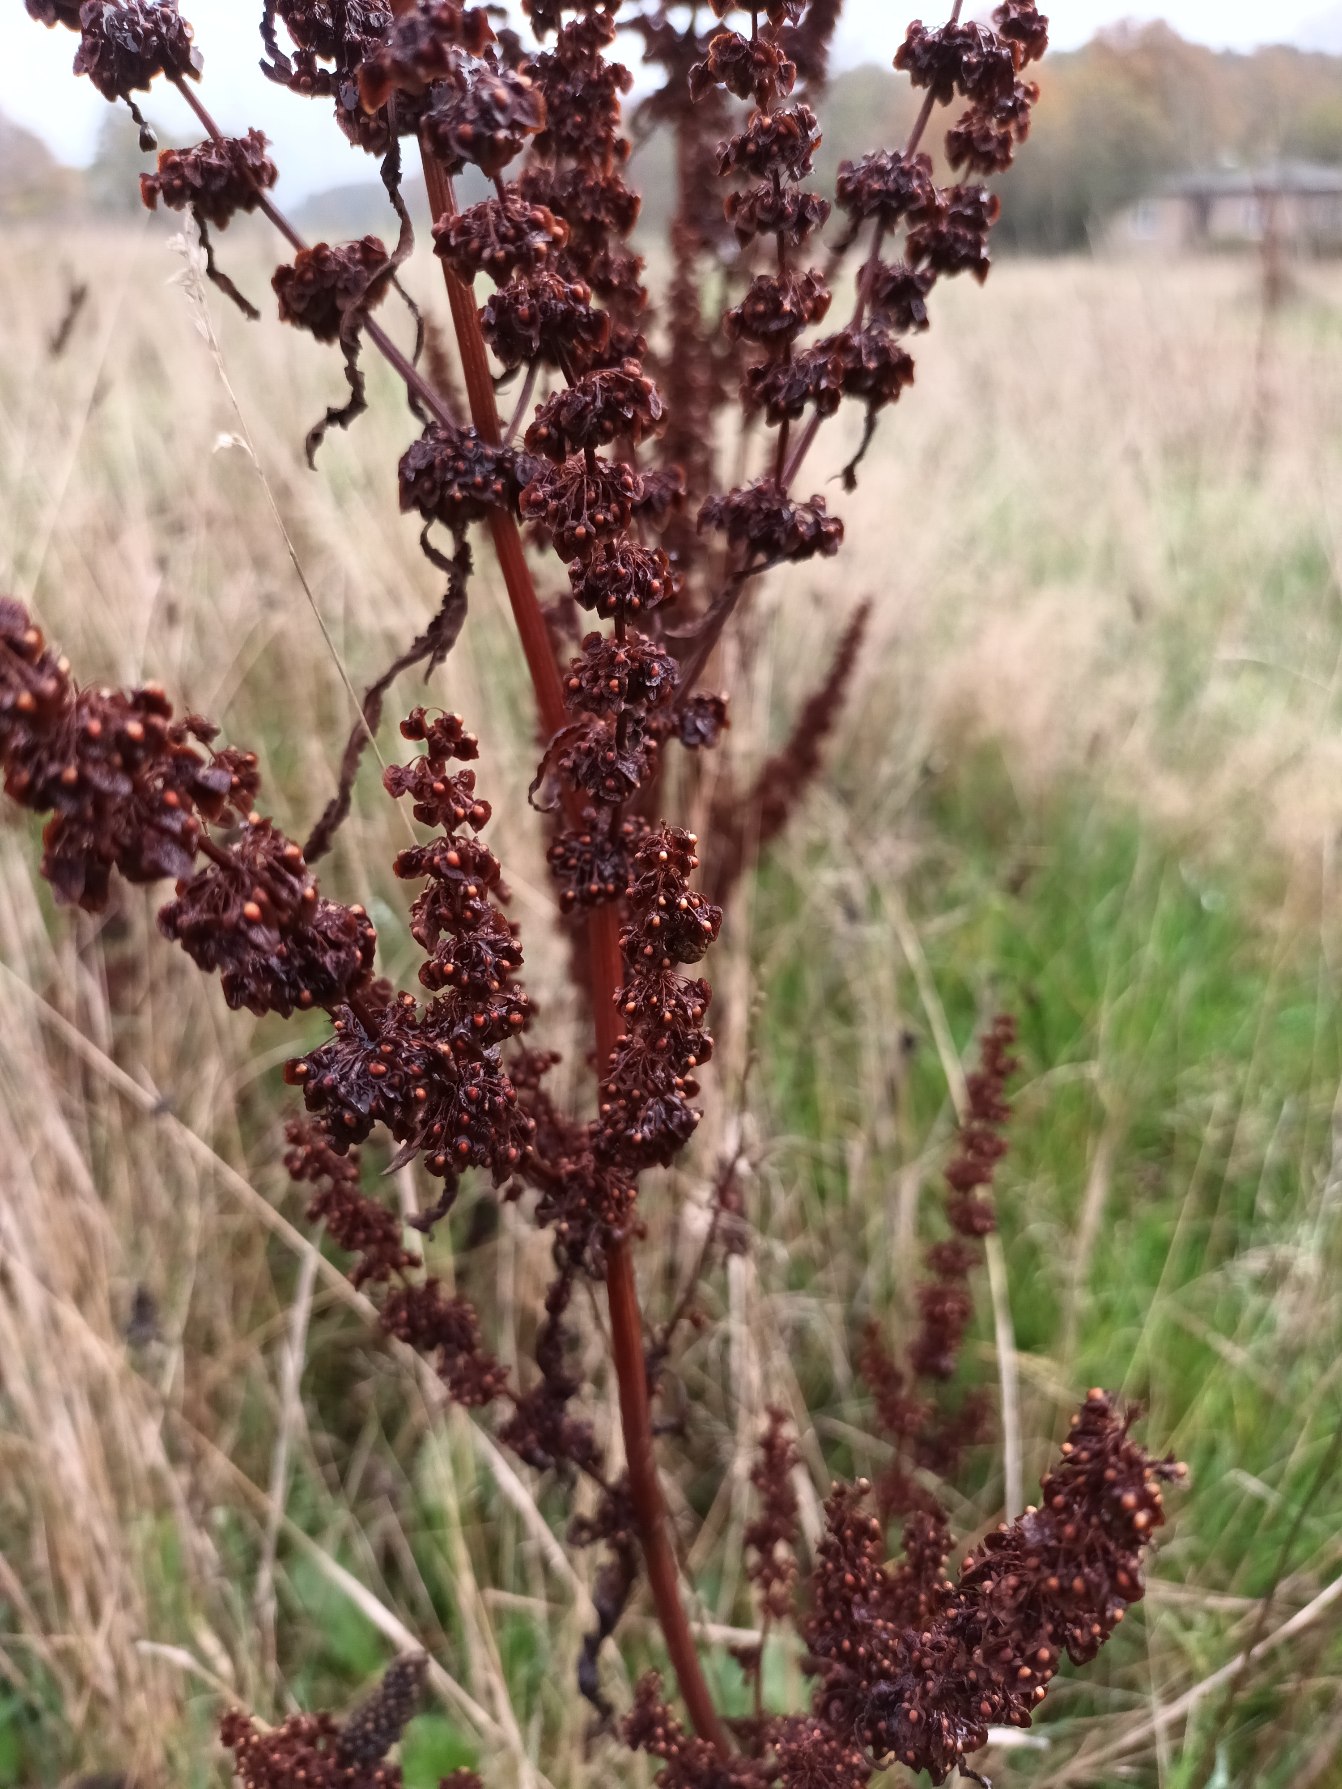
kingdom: Plantae
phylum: Tracheophyta
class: Magnoliopsida
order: Caryophyllales
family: Polygonaceae
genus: Rumex
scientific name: Rumex crispus
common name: Kruset skræppe
